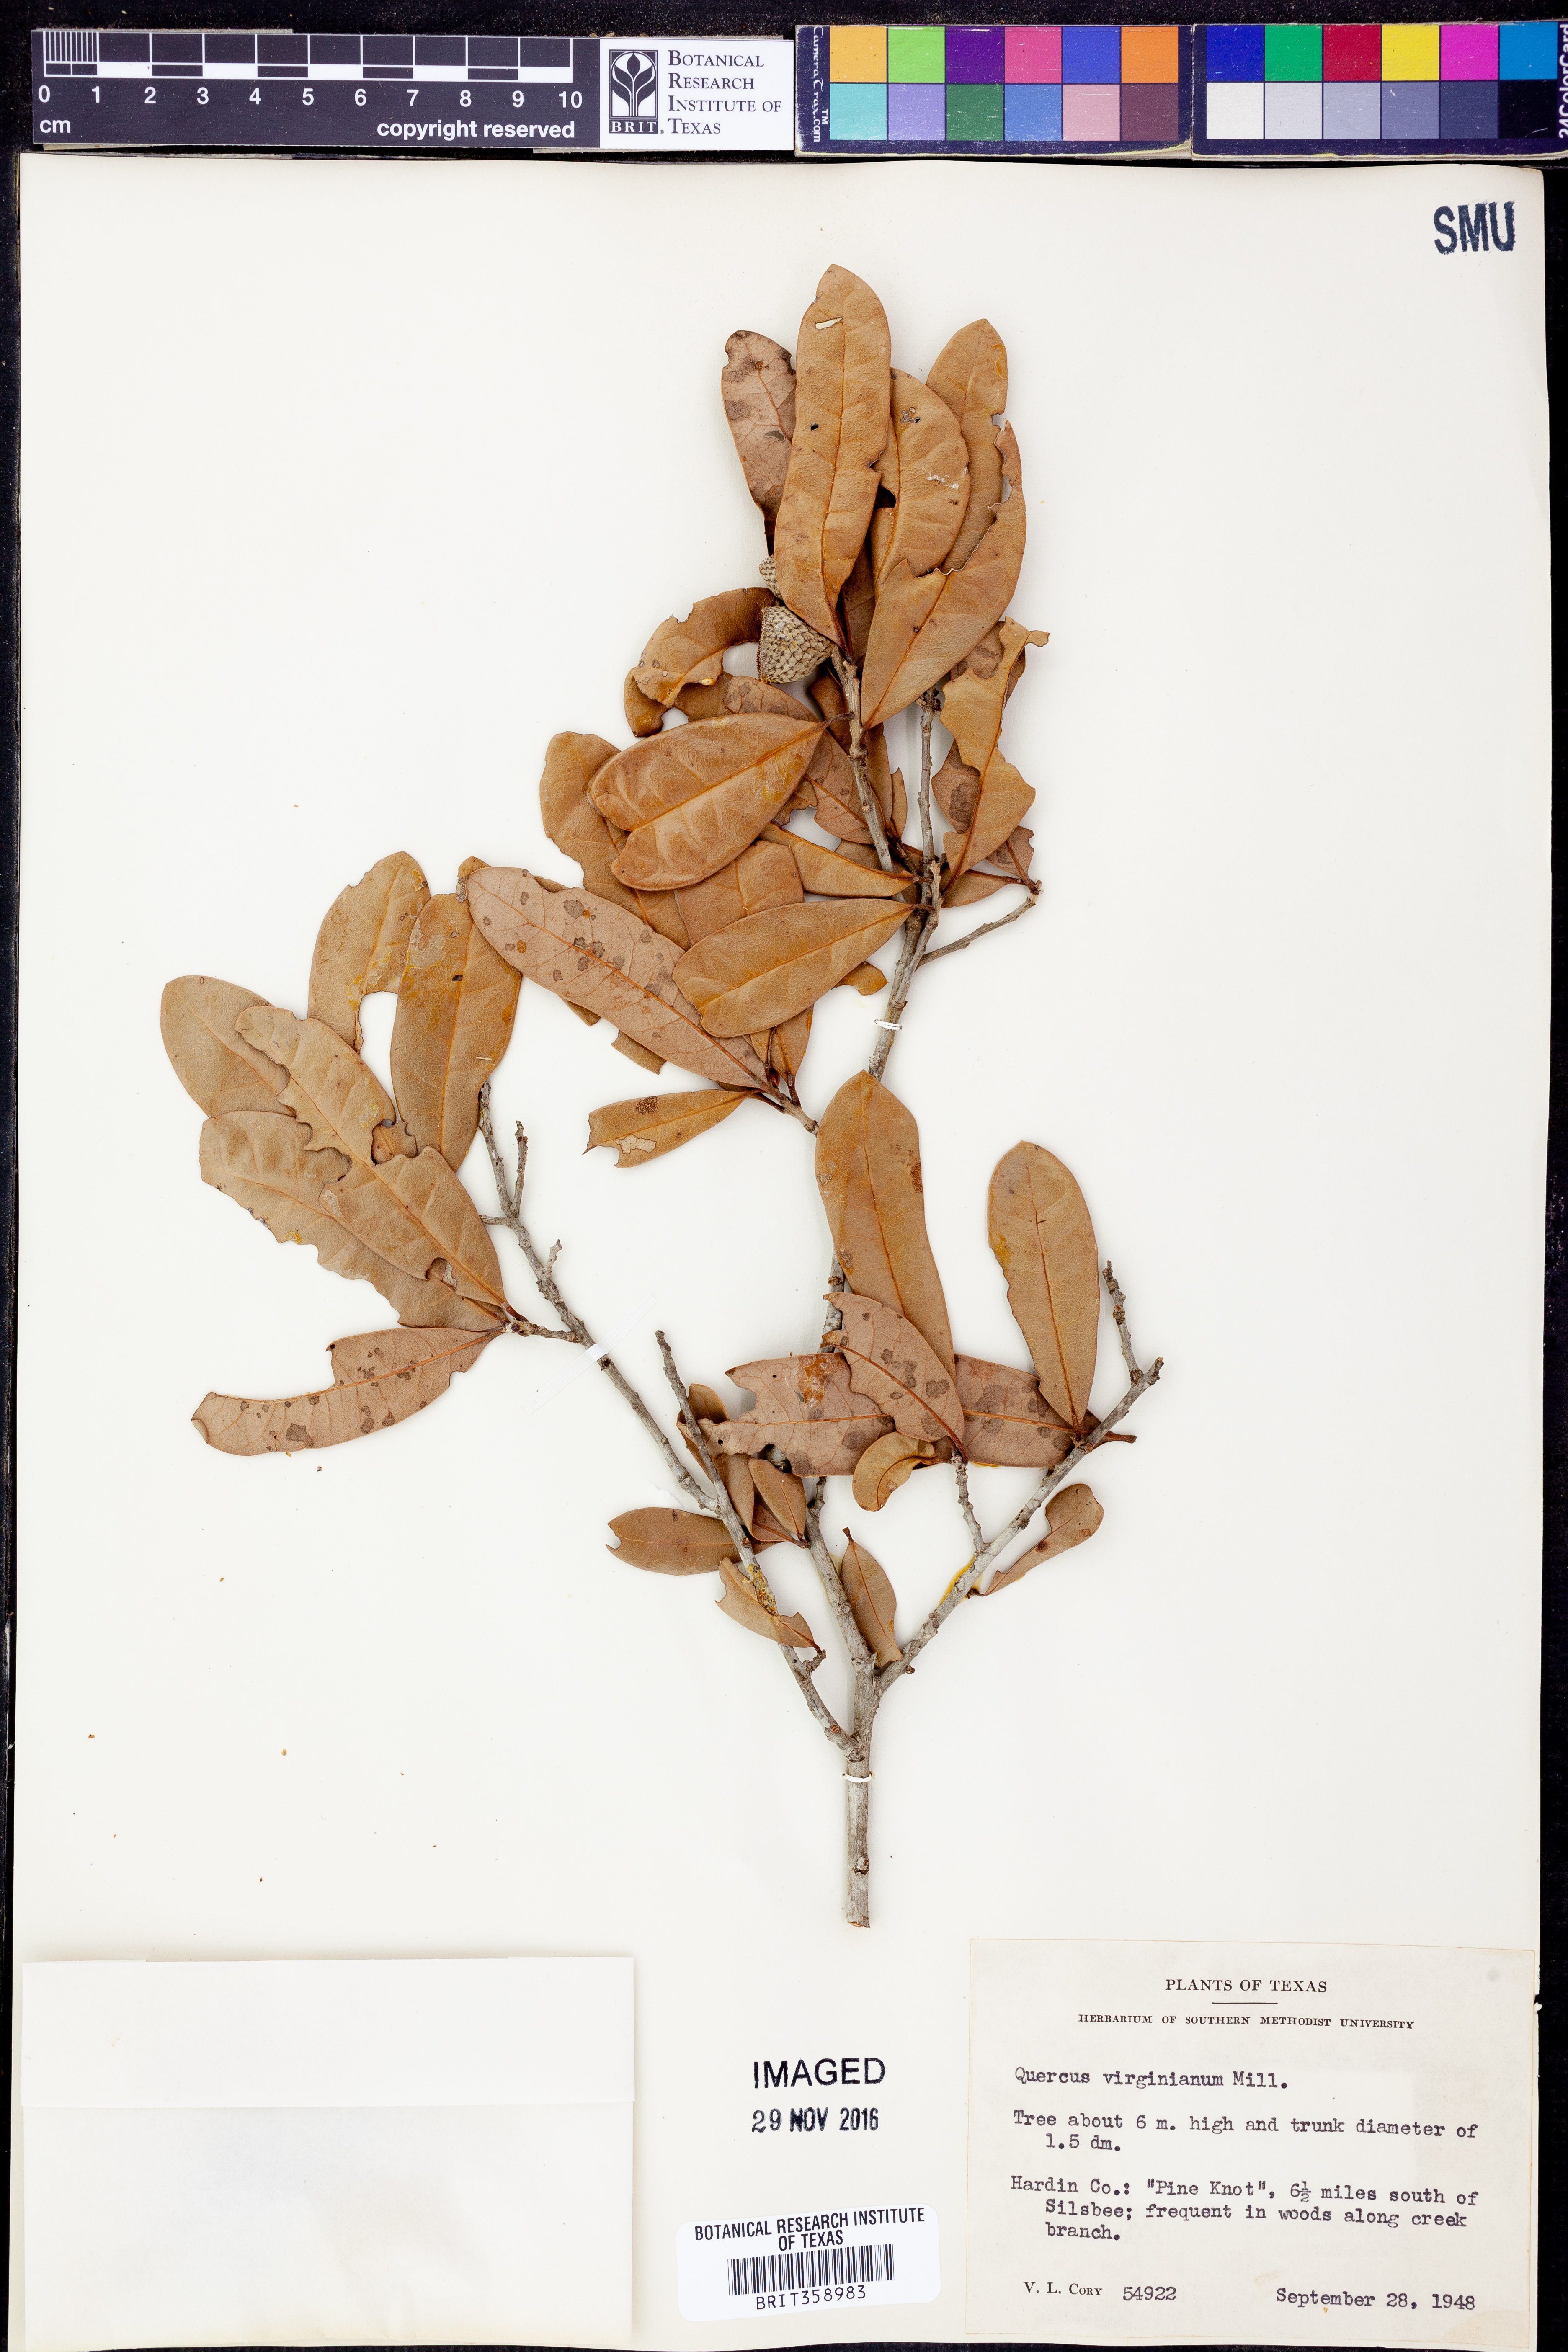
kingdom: Plantae
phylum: Tracheophyta
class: Magnoliopsida
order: Fagales
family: Fagaceae
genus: Quercus
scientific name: Quercus virginiana
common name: Southern live oak
